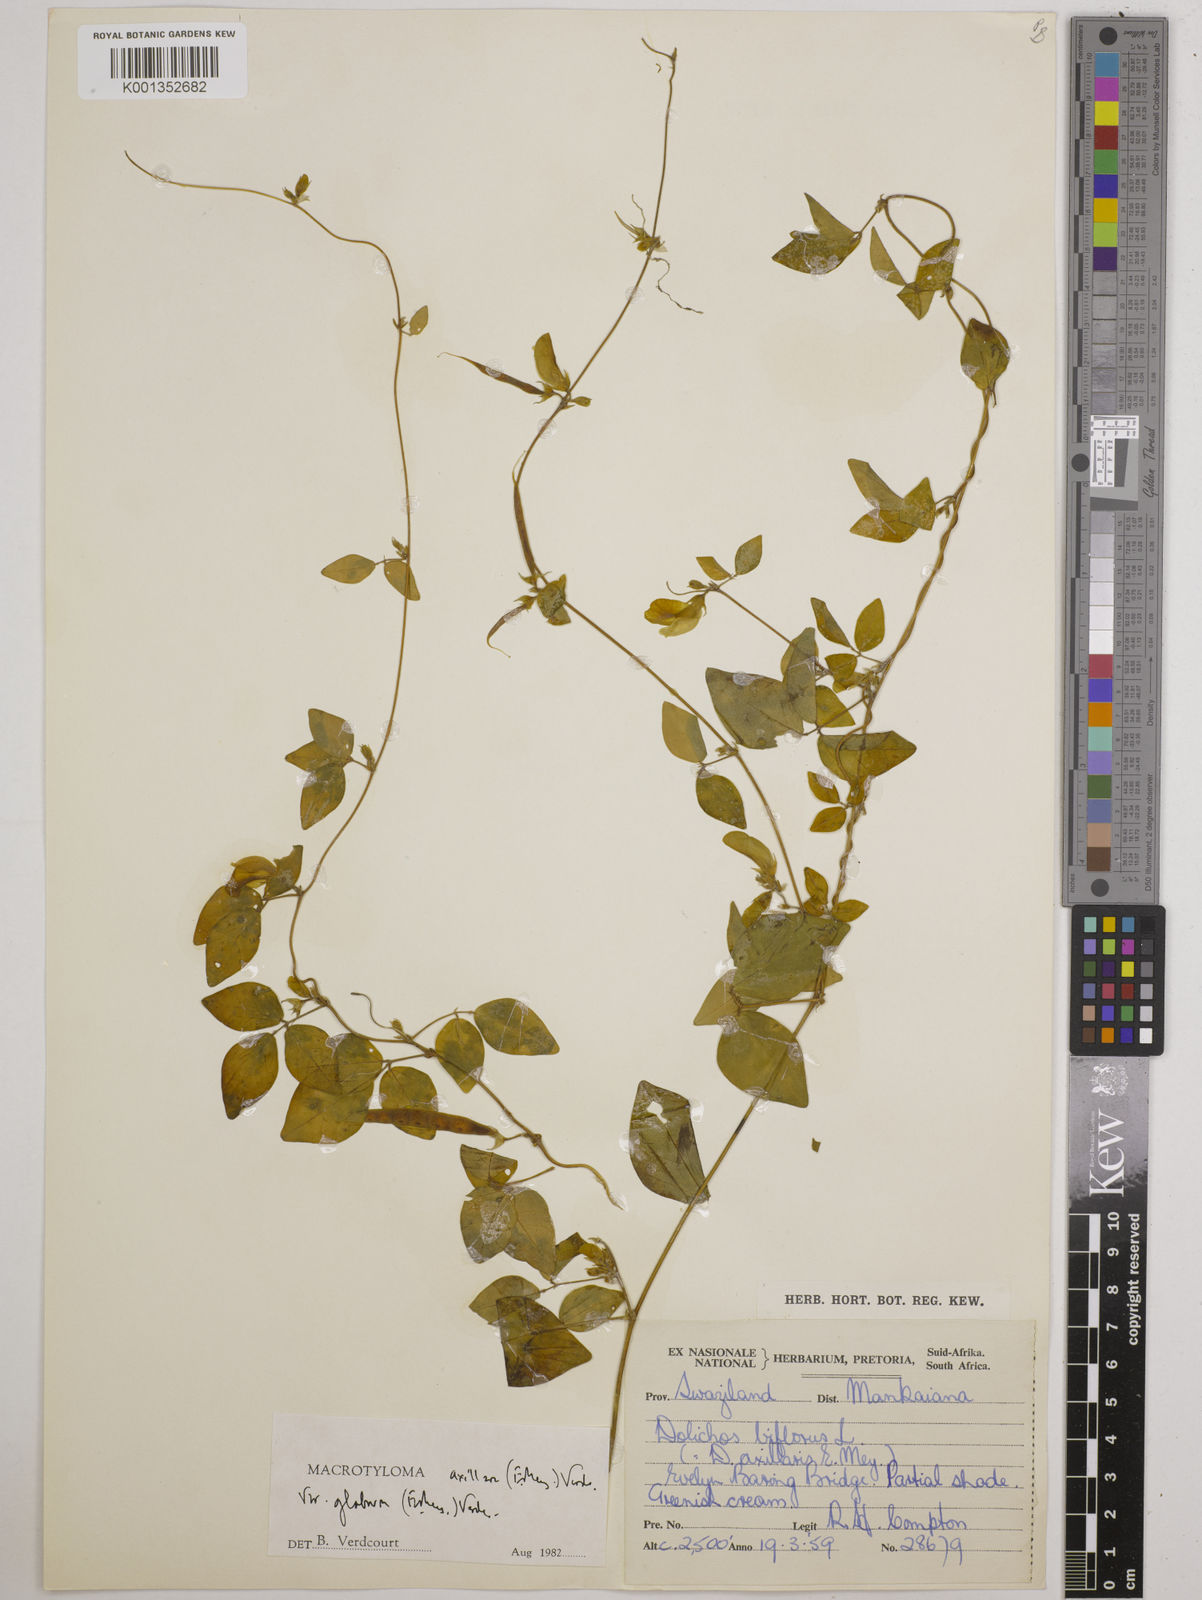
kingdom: Plantae
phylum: Tracheophyta
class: Magnoliopsida
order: Fabales
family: Fabaceae
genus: Macrotyloma
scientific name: Macrotyloma axillare
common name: Perennial horsegram
